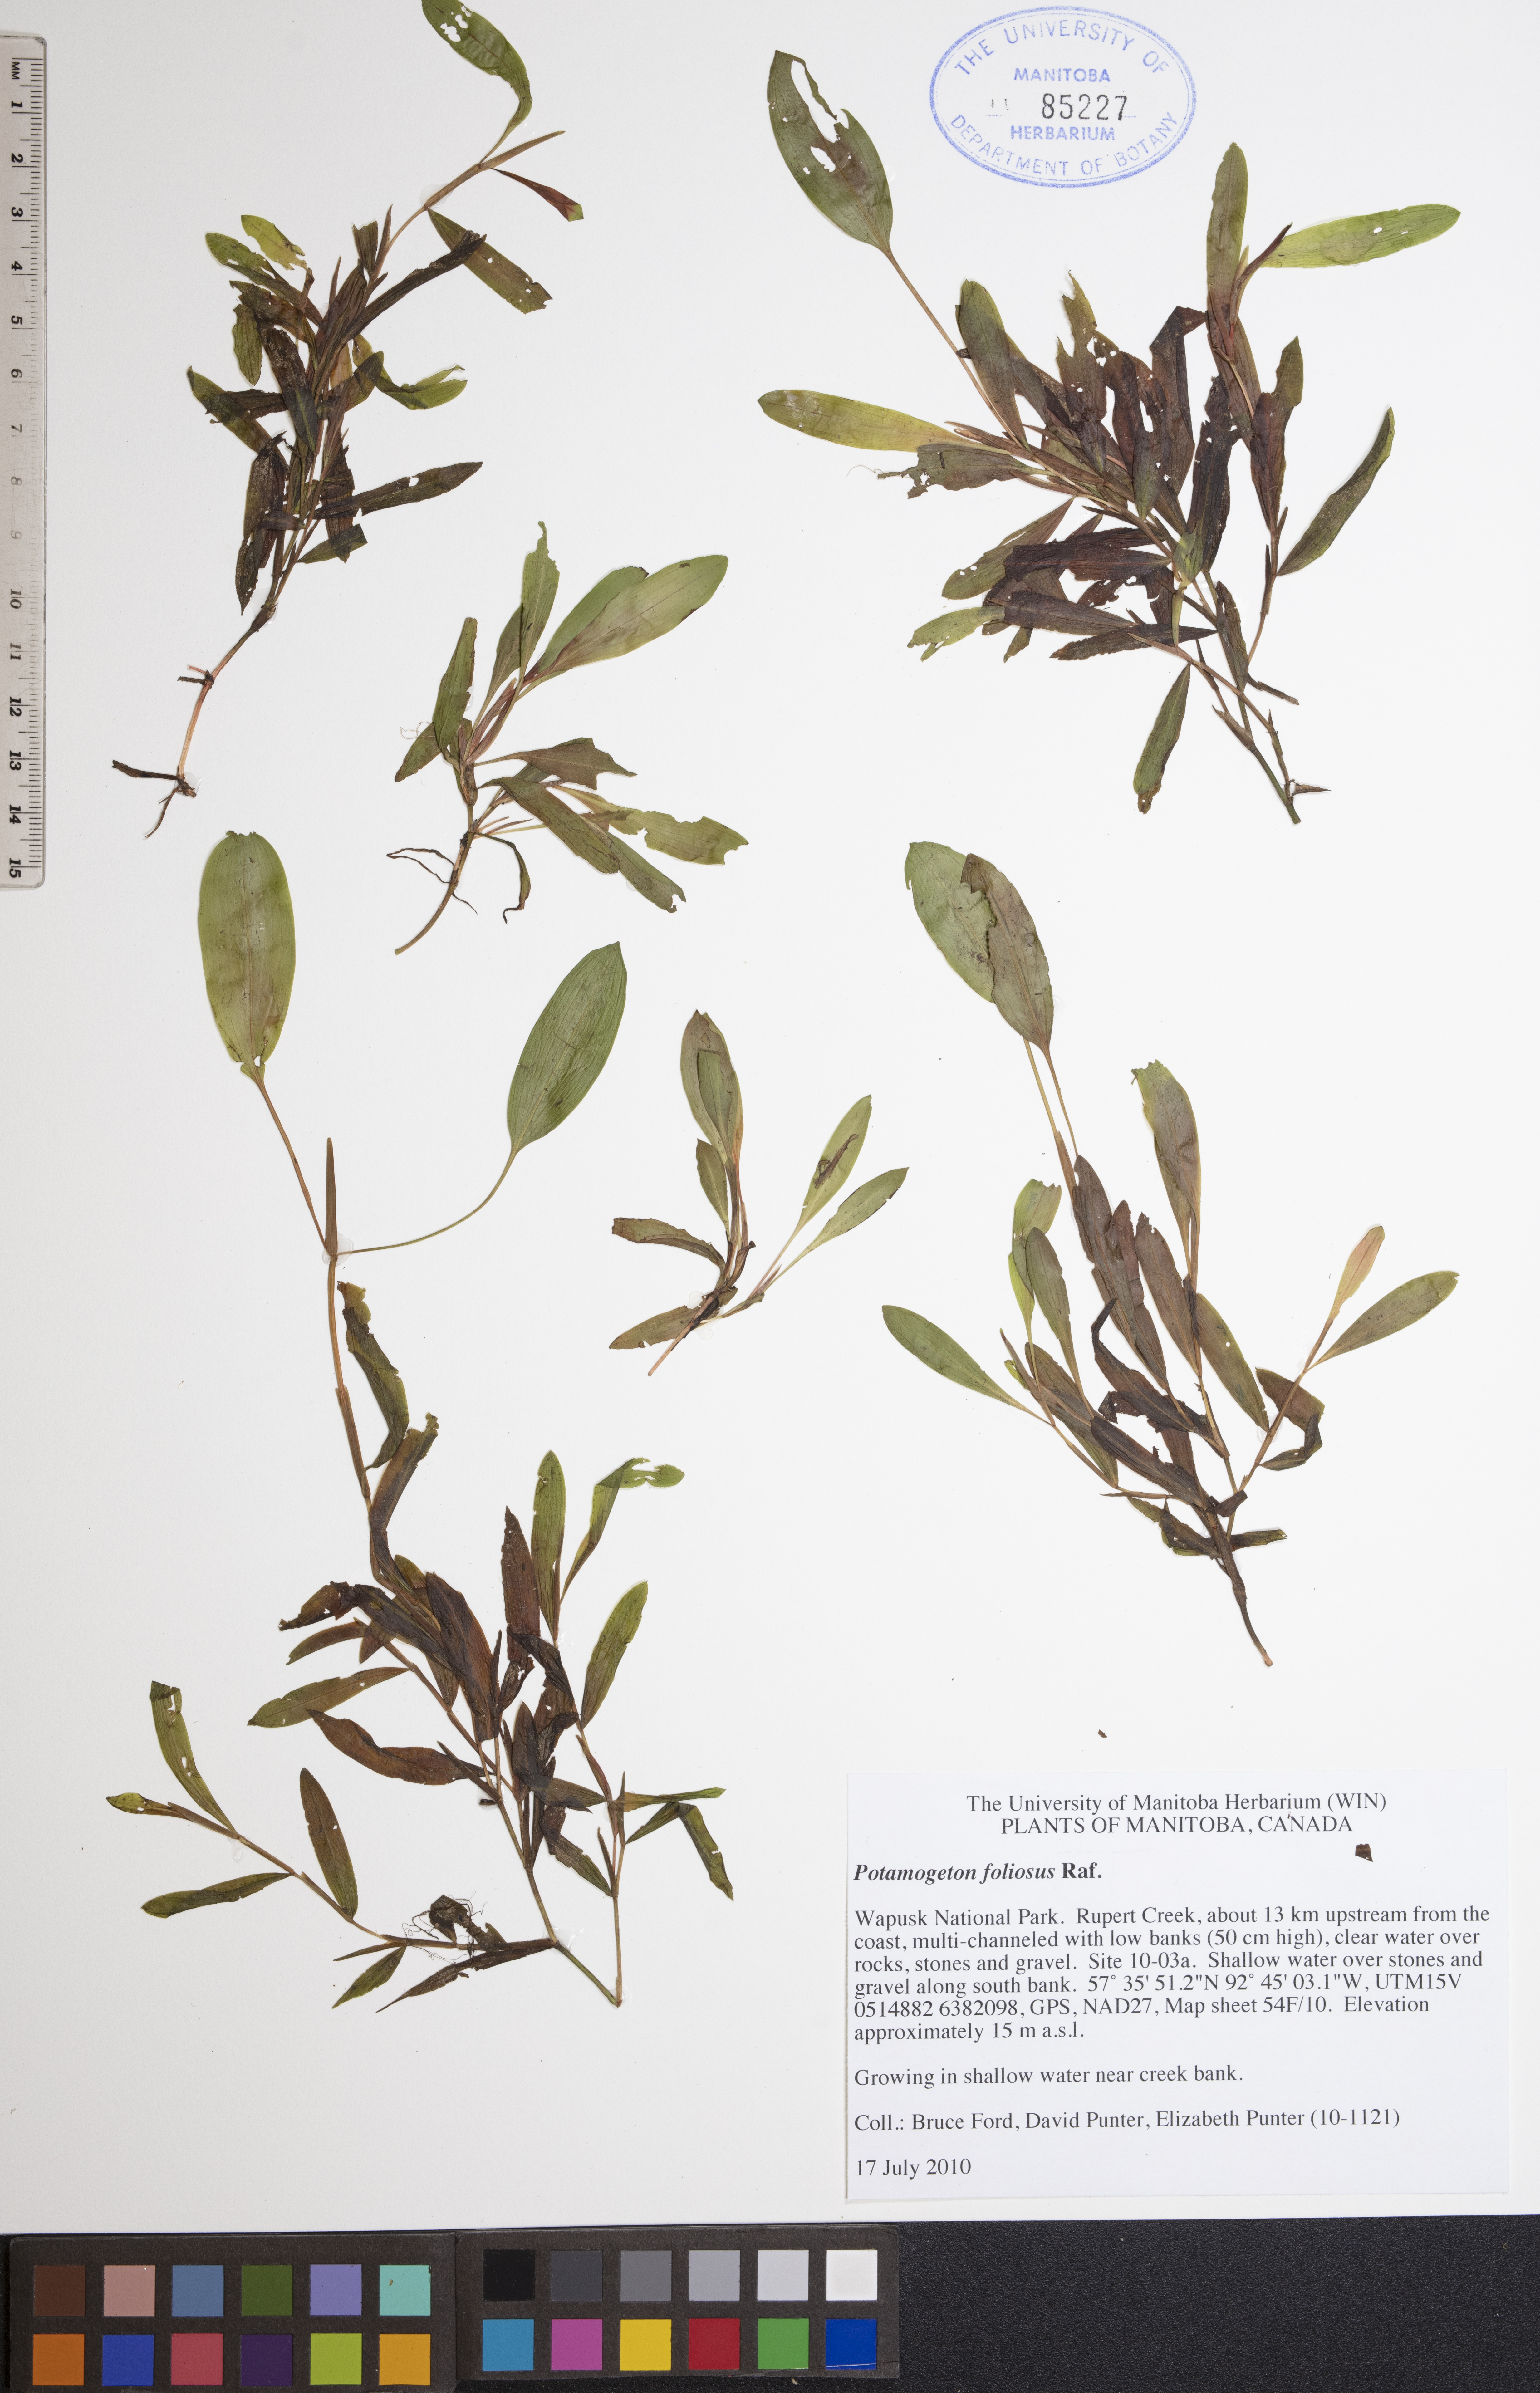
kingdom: Plantae
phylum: Tracheophyta
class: Liliopsida
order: Alismatales
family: Potamogetonaceae
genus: Potamogeton
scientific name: Potamogeton foliosus
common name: Leafy pondweed
